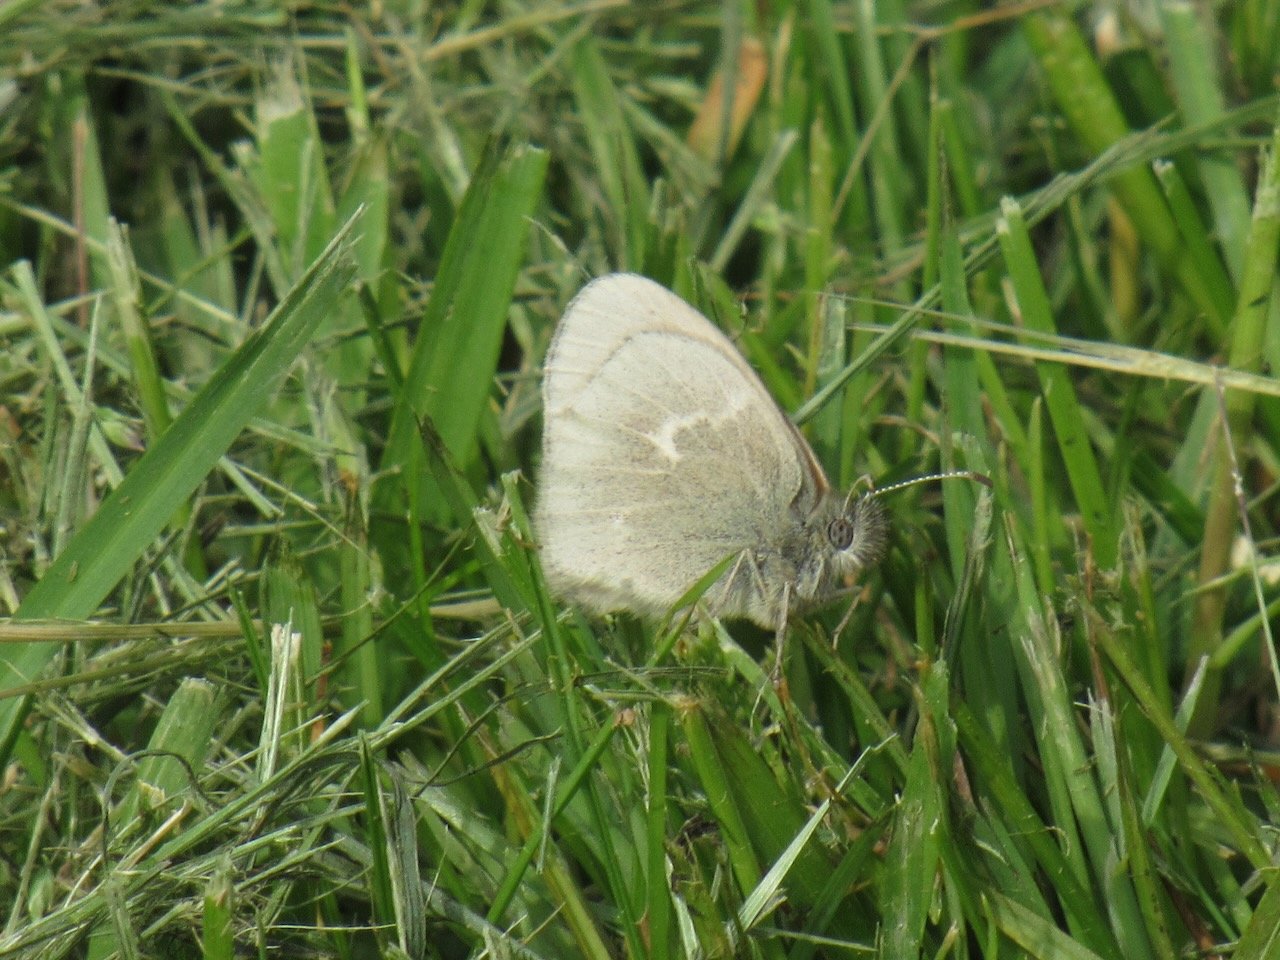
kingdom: Animalia
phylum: Arthropoda
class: Insecta
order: Lepidoptera
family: Nymphalidae
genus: Coenonympha
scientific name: Coenonympha tullia
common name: Large Heath
